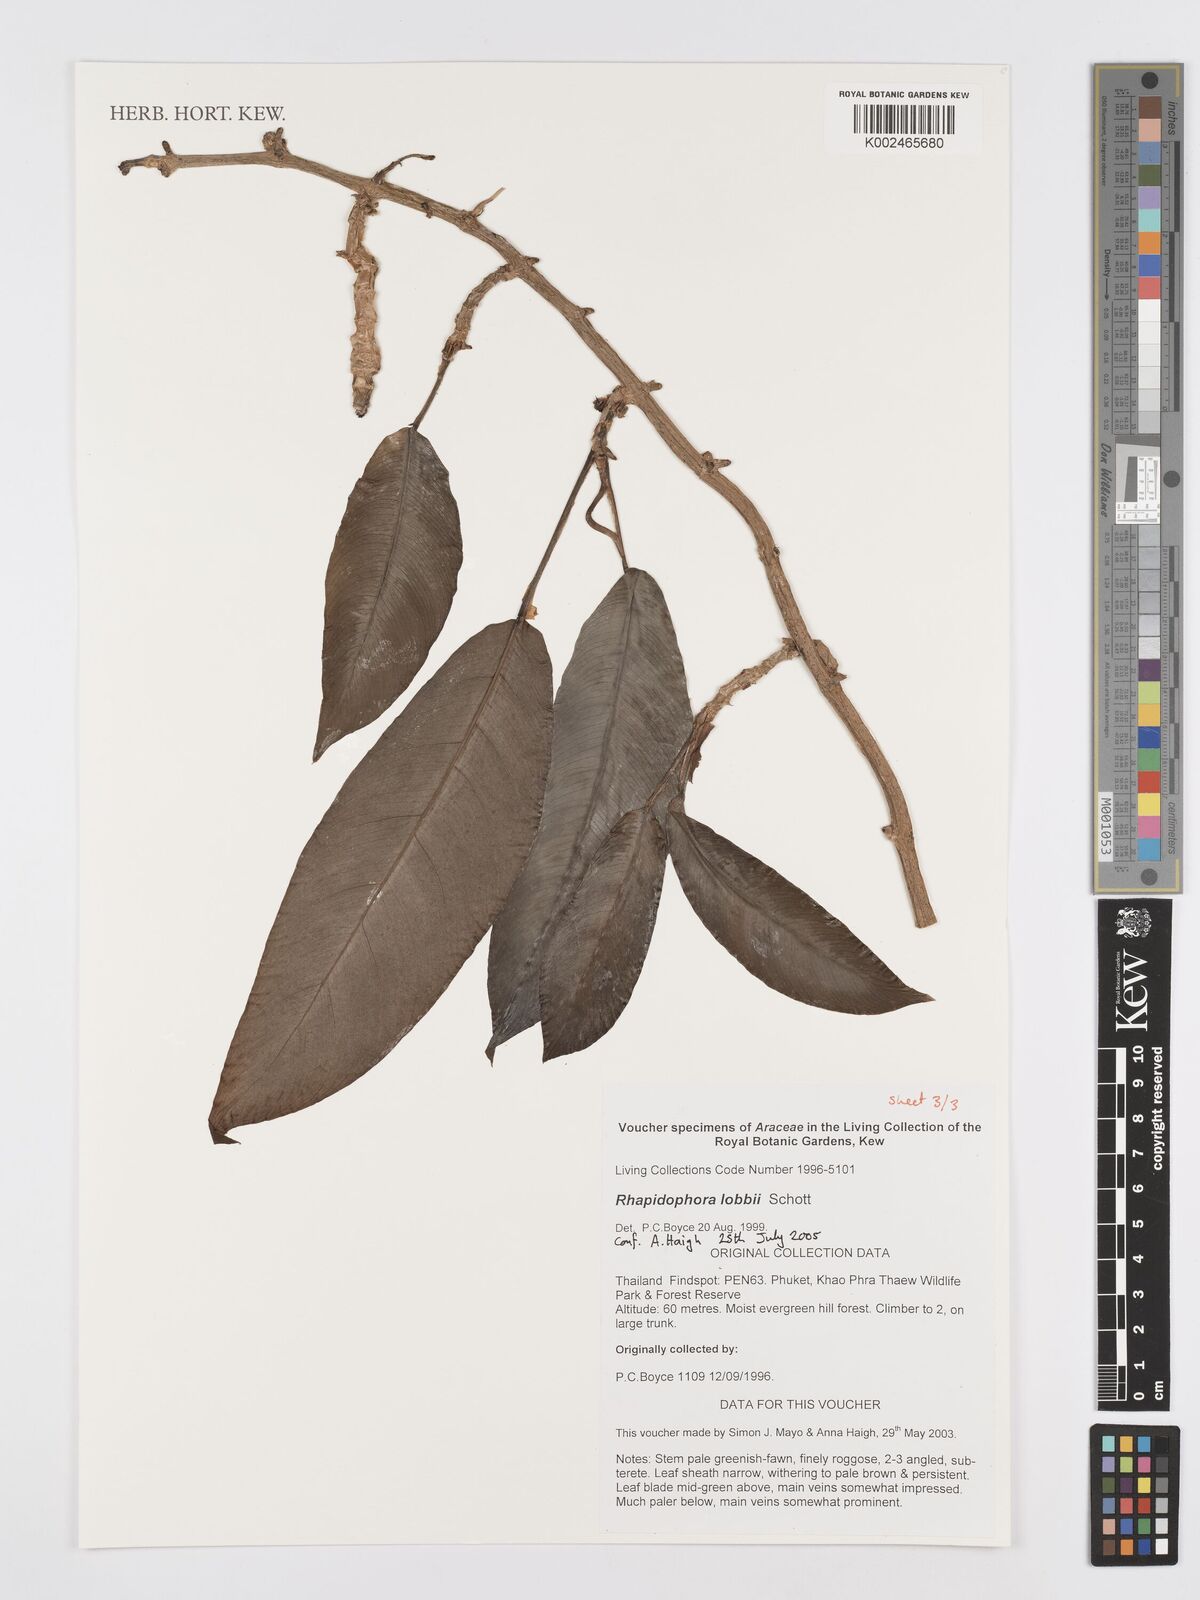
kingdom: Plantae
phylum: Tracheophyta
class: Liliopsida
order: Alismatales
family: Araceae
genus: Rhaphidophora
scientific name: Rhaphidophora lobbii
